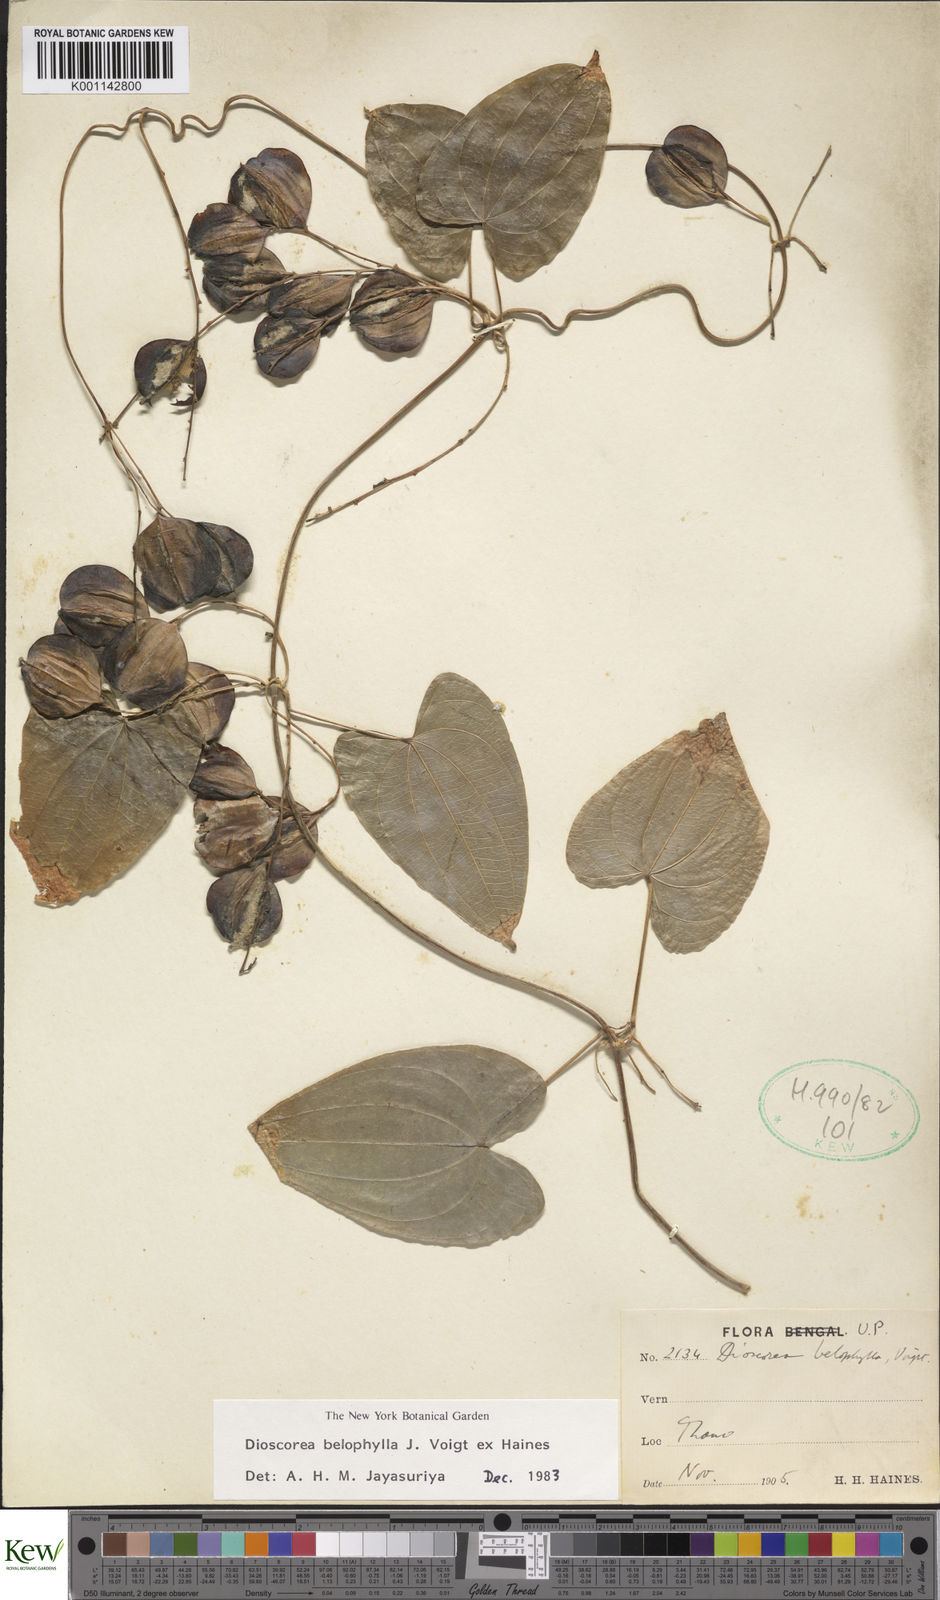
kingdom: Plantae
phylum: Tracheophyta
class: Liliopsida
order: Dioscoreales
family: Dioscoreaceae
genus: Dioscorea
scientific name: Dioscorea belophylla
